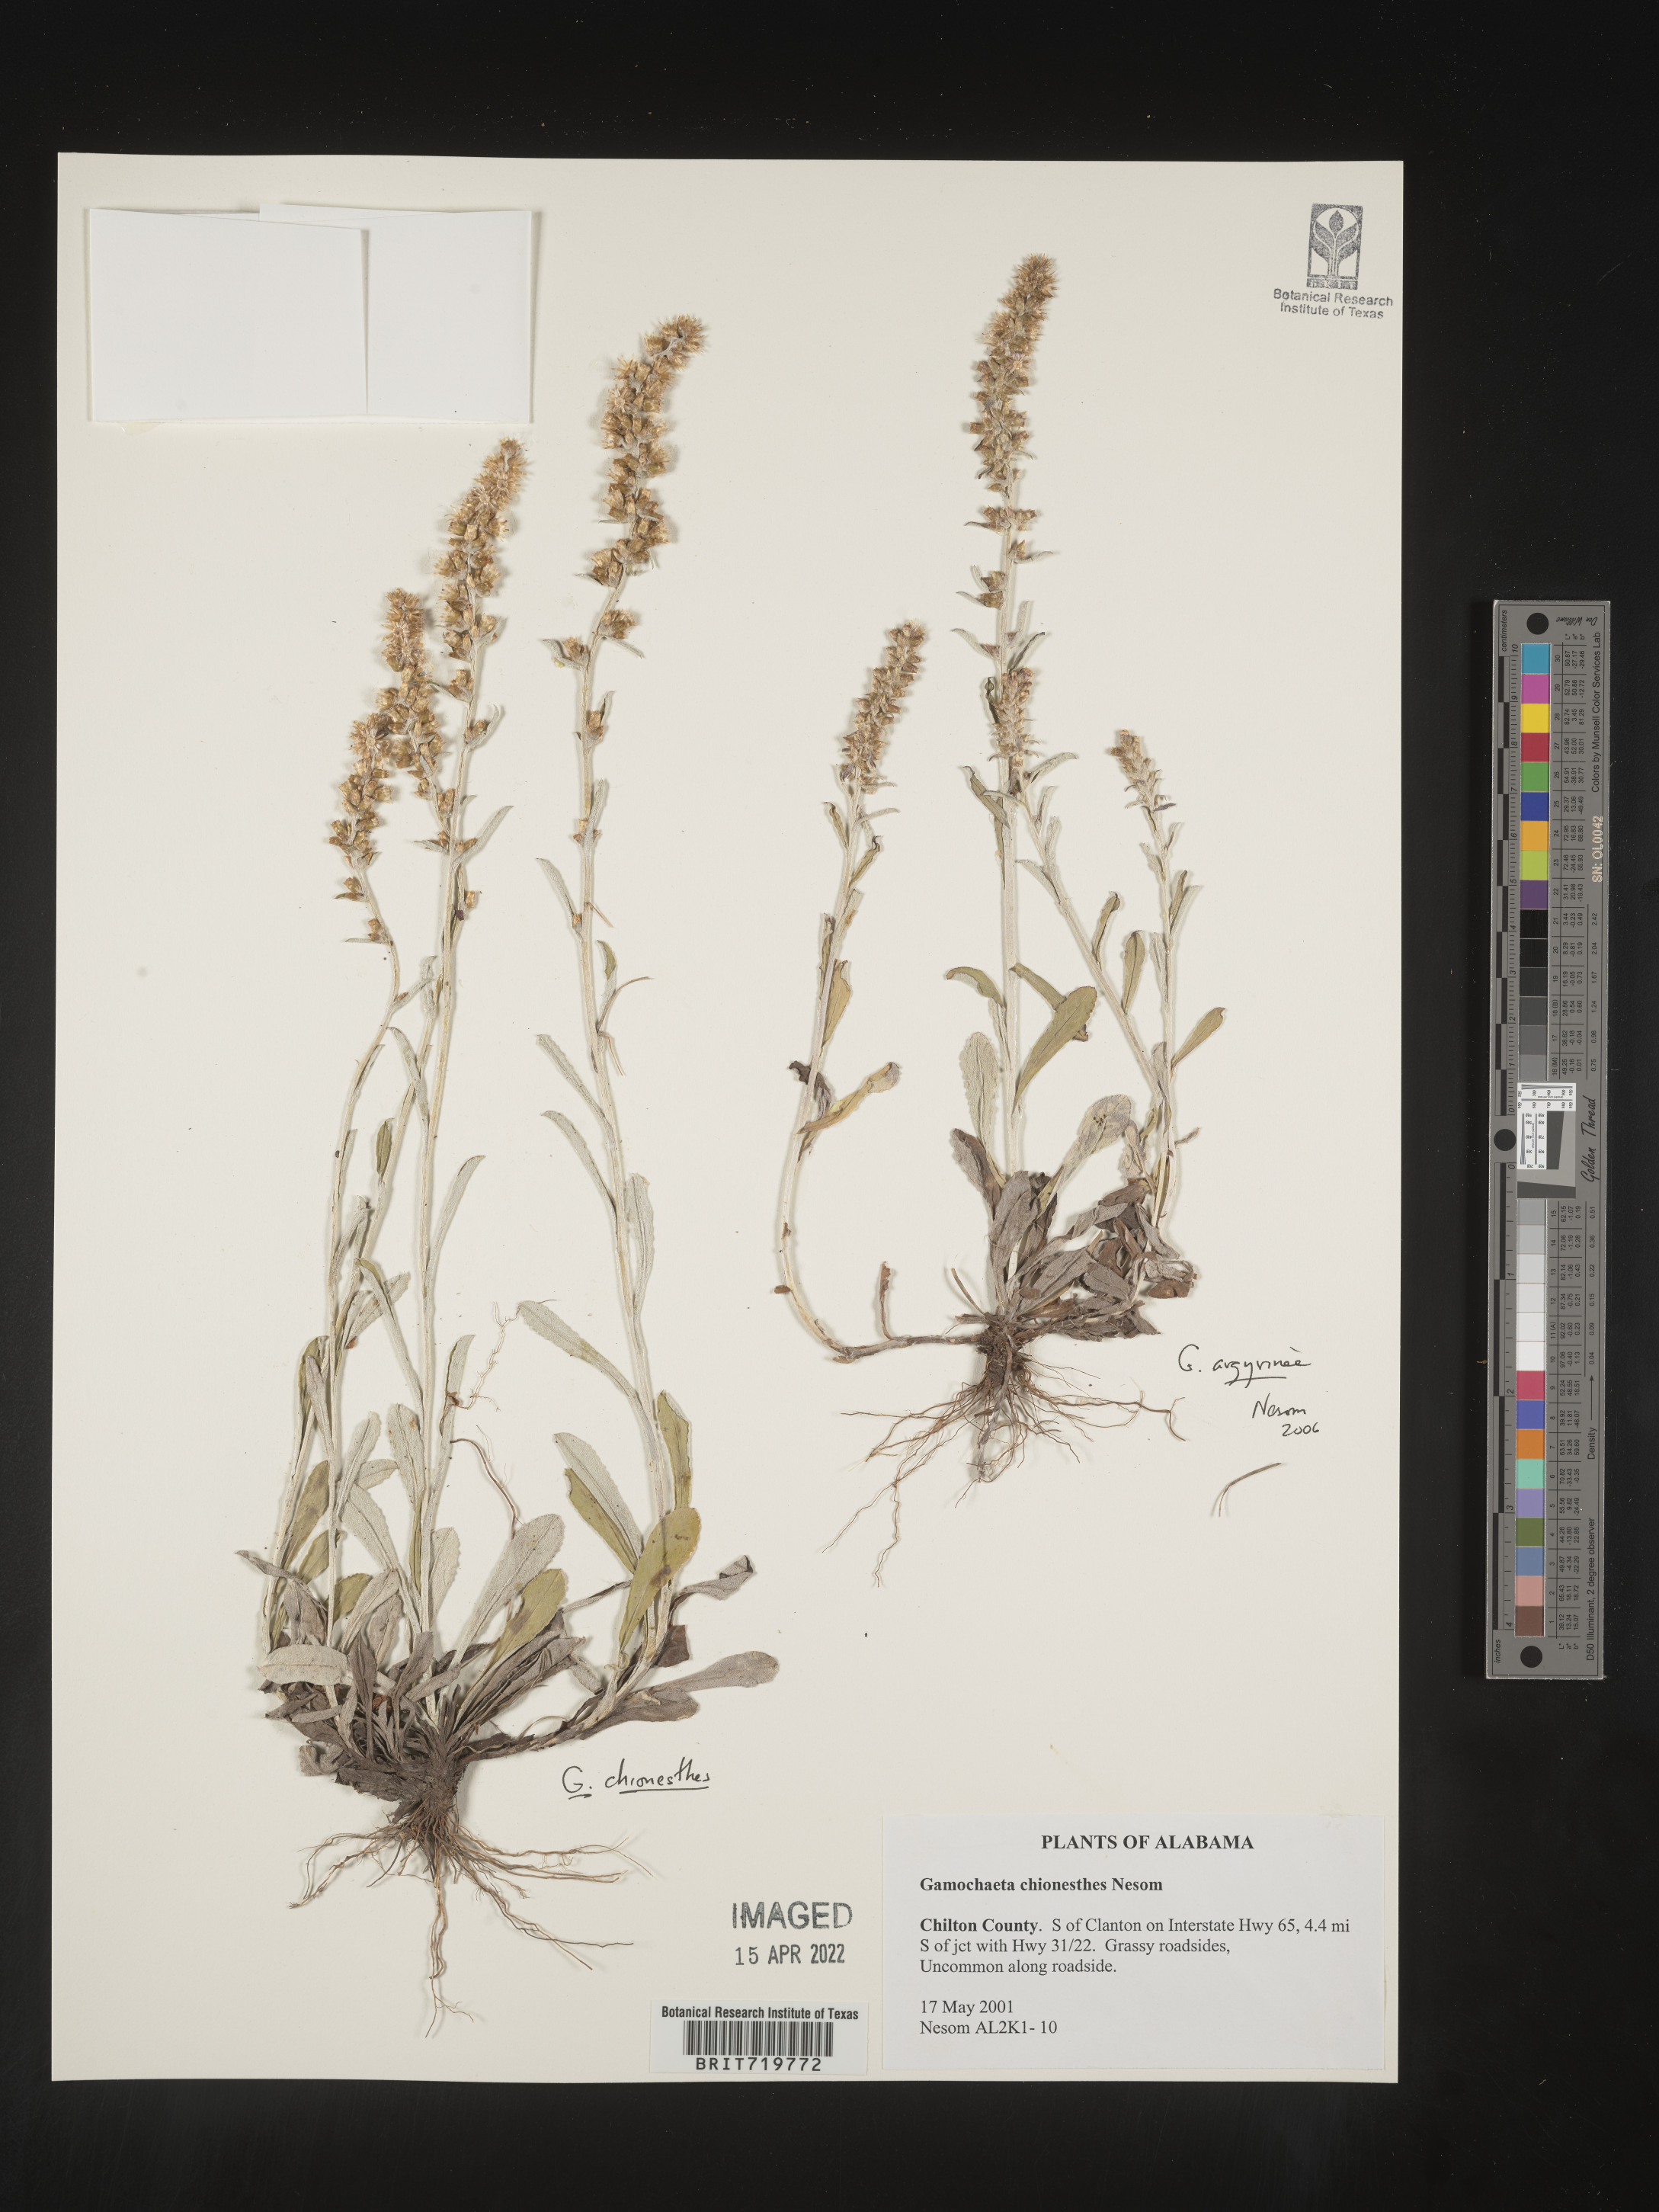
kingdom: Plantae
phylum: Tracheophyta
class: Magnoliopsida
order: Asterales
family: Asteraceae
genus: Gamochaeta
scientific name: Gamochaeta chionesthes
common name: Gray everlasting
